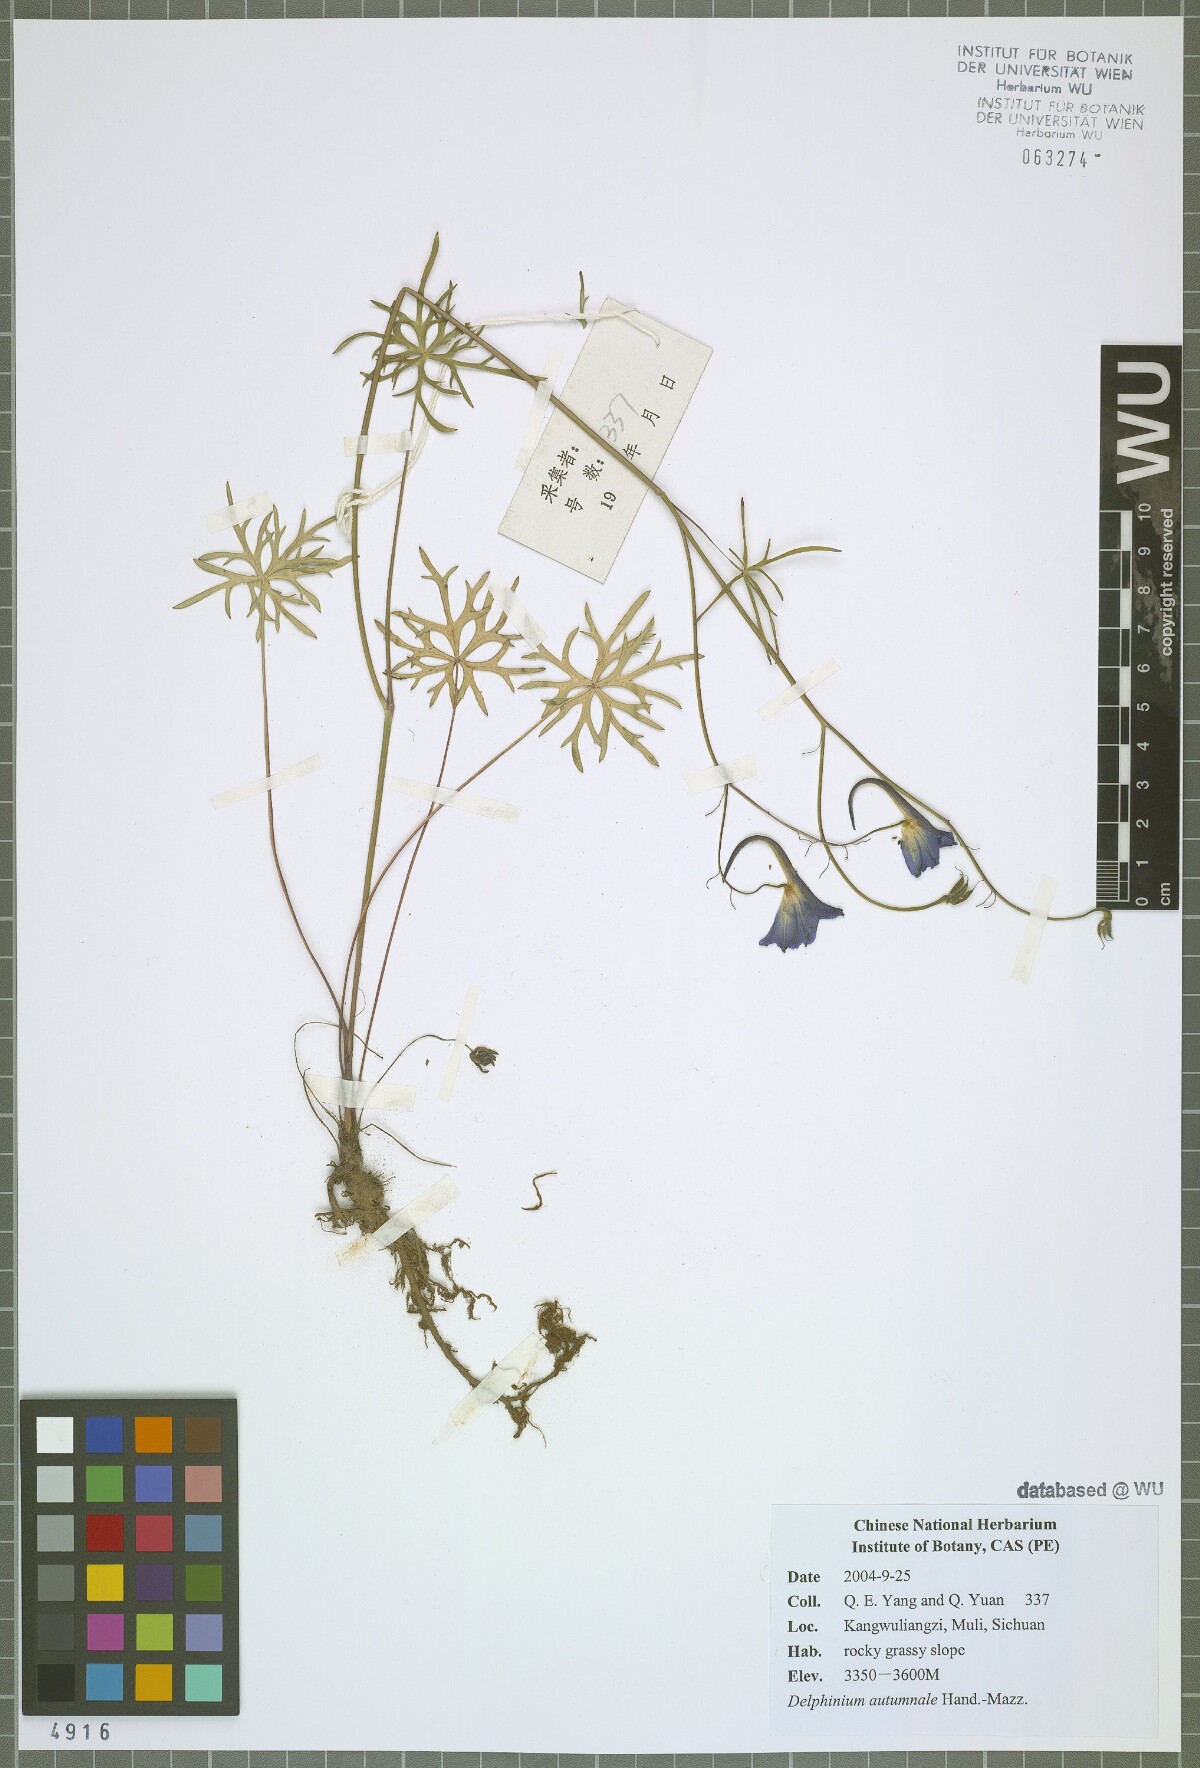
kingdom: Plantae
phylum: Tracheophyta
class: Magnoliopsida
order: Ranunculales
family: Ranunculaceae
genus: Delphinium
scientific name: Delphinium autumnale
